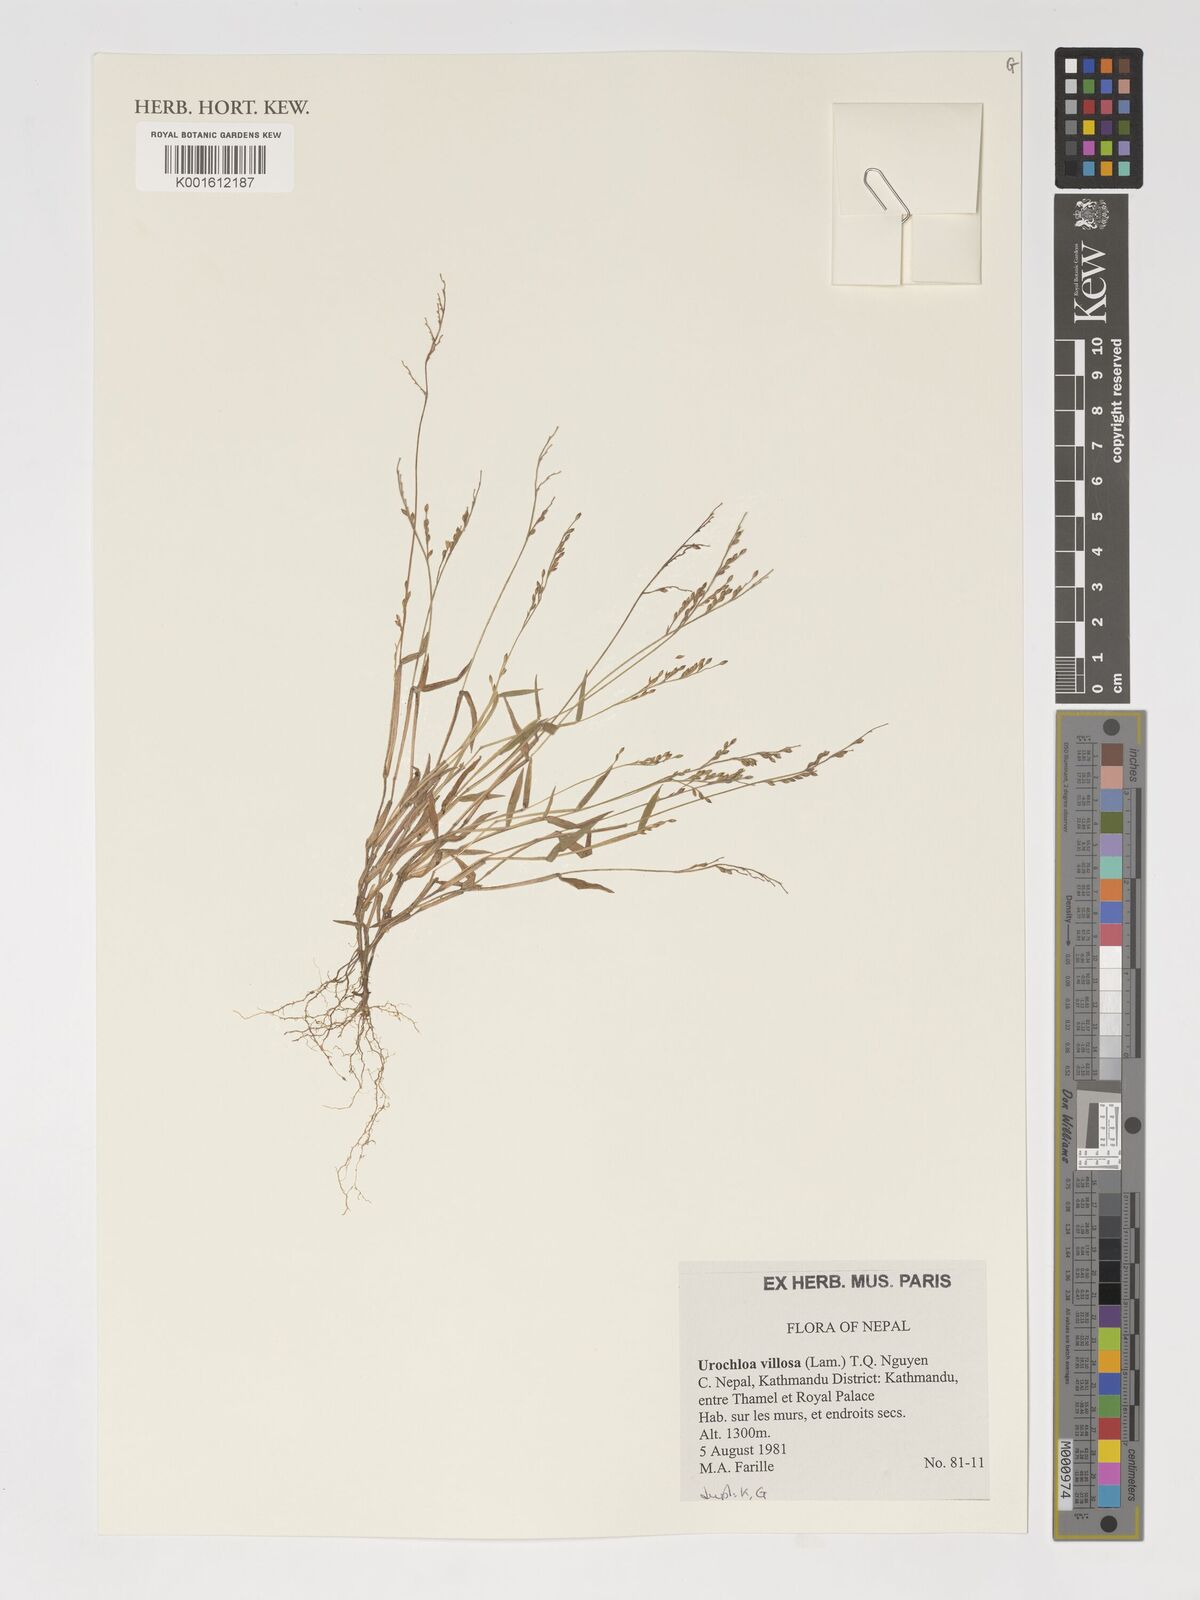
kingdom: Plantae
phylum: Tracheophyta
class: Liliopsida
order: Poales
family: Poaceae
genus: Urochloa
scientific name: Urochloa villosa
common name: Hairy signalgrass
